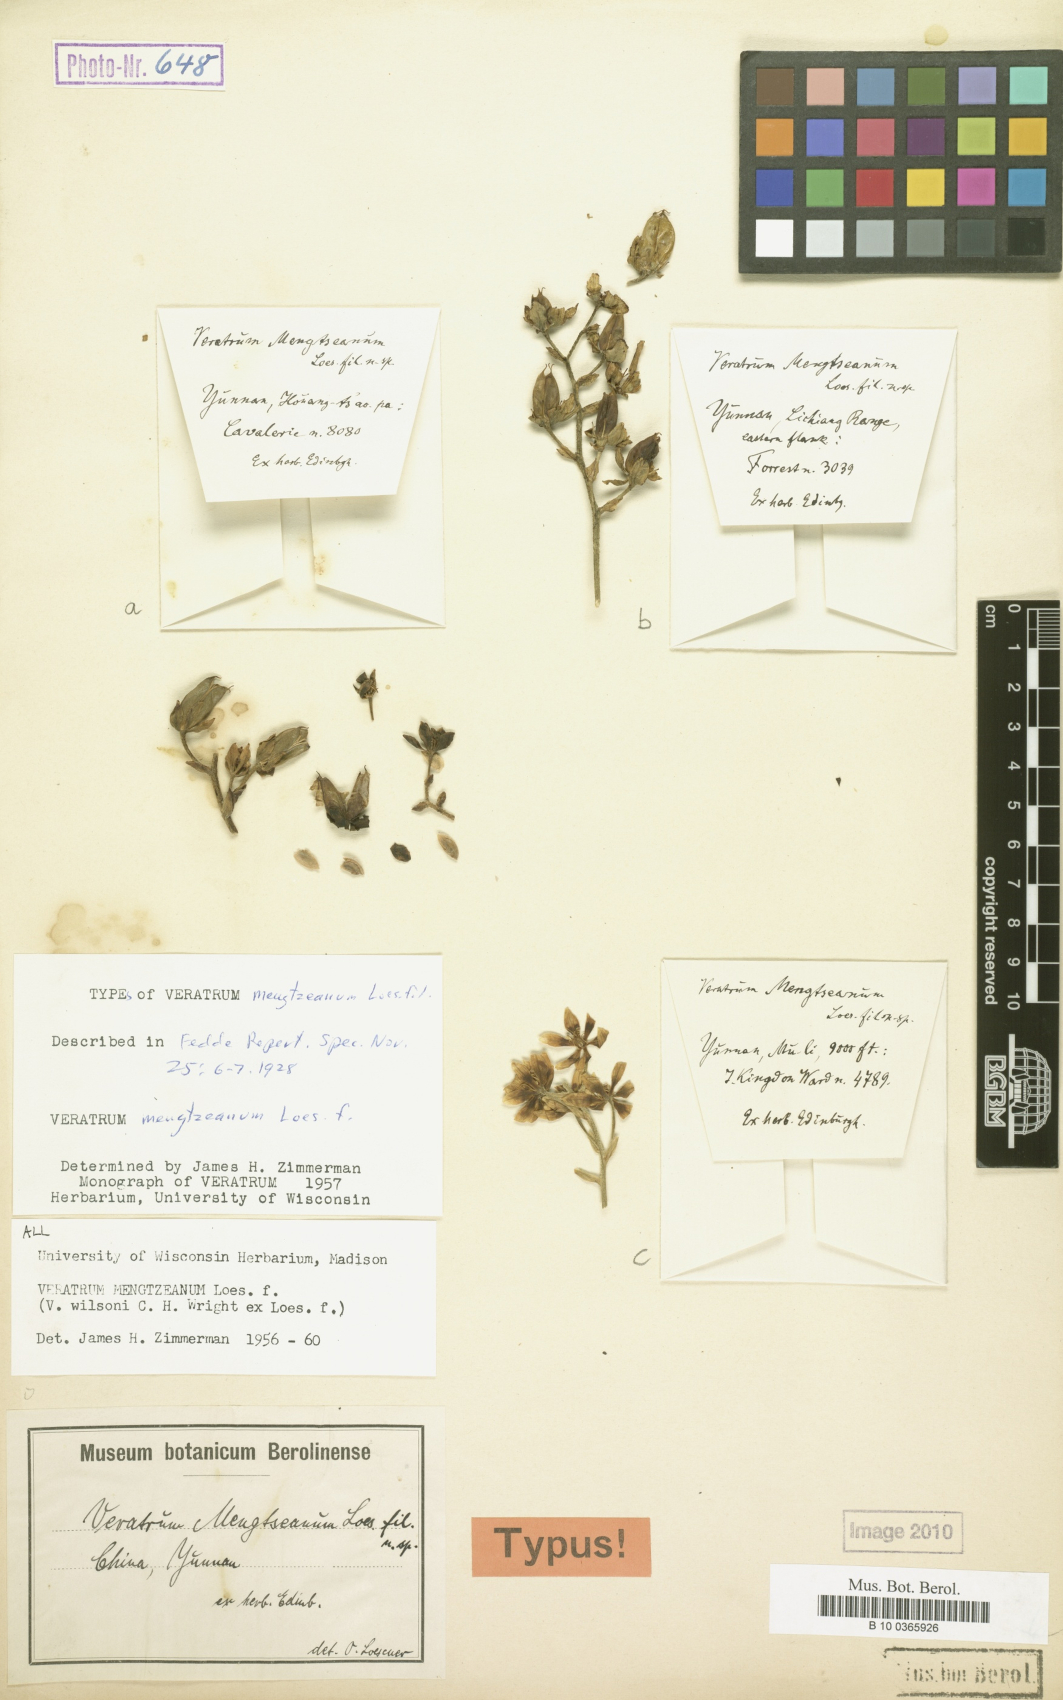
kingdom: Plantae
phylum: Tracheophyta
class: Liliopsida
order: Liliales
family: Melanthiaceae
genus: Veratrum
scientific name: Veratrum mengtzeanum
